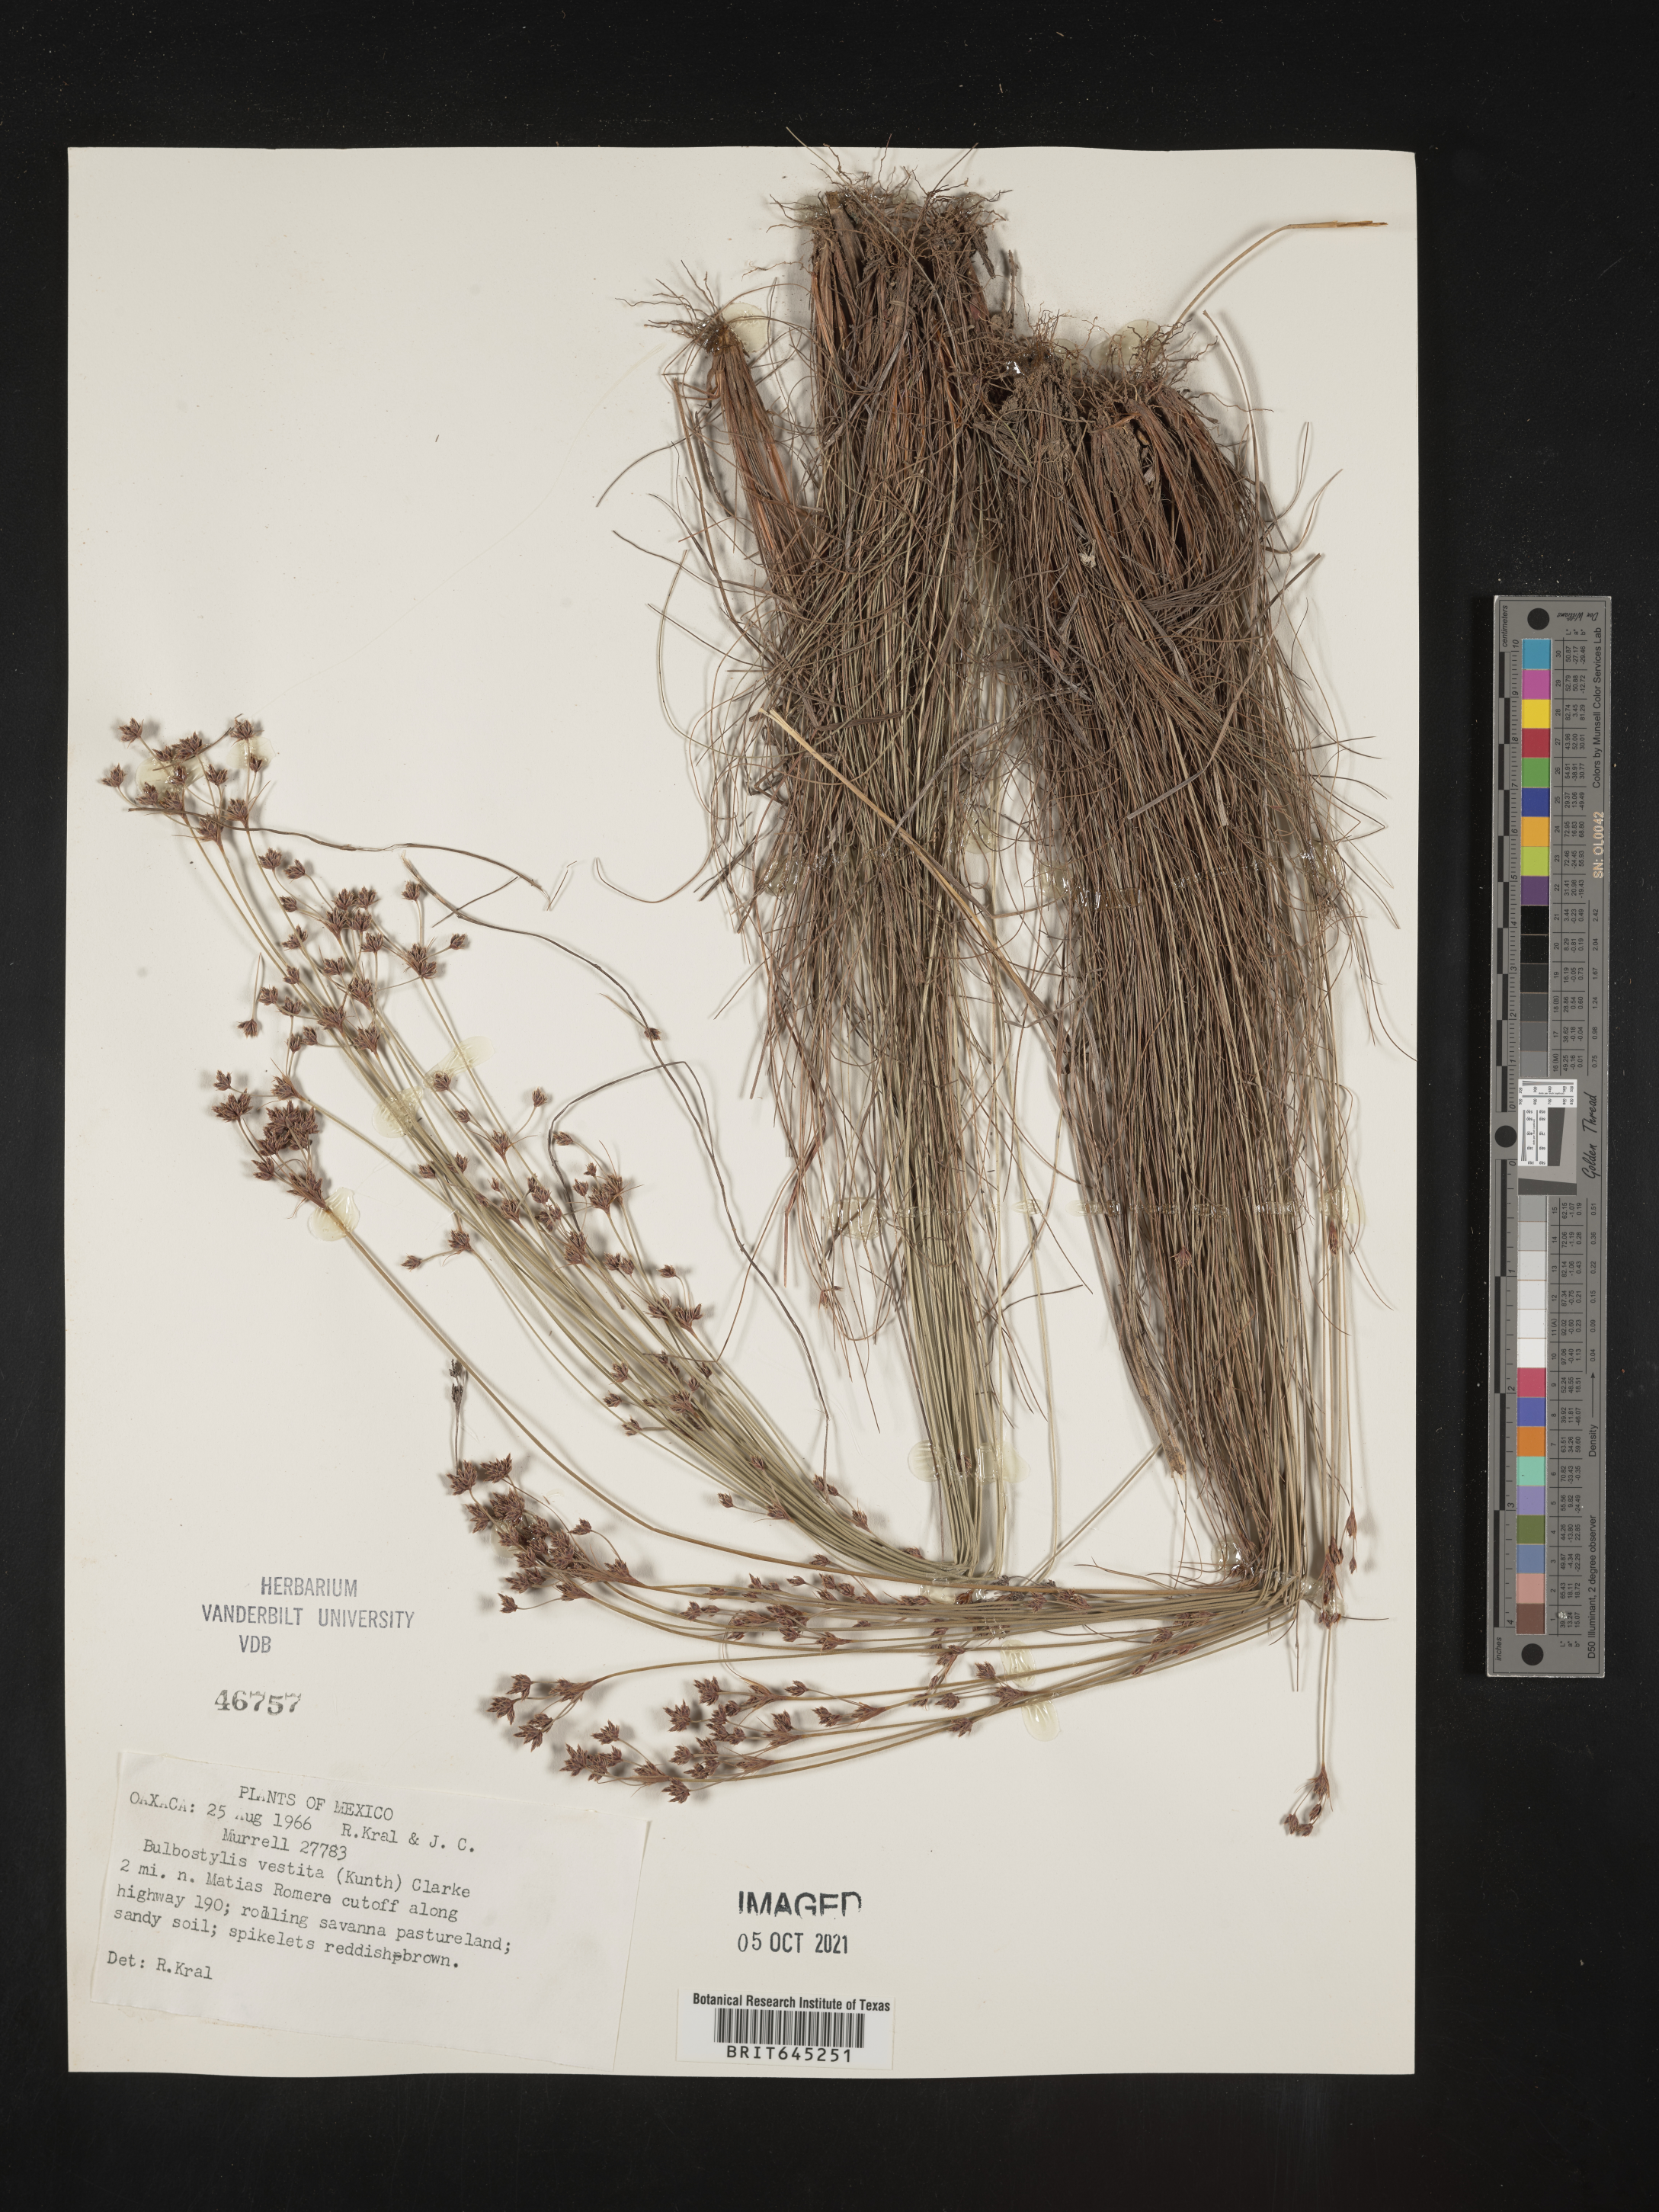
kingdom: Plantae
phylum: Tracheophyta
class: Liliopsida
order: Poales
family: Cyperaceae
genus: Bulbostylis
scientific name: Bulbostylis vestita
